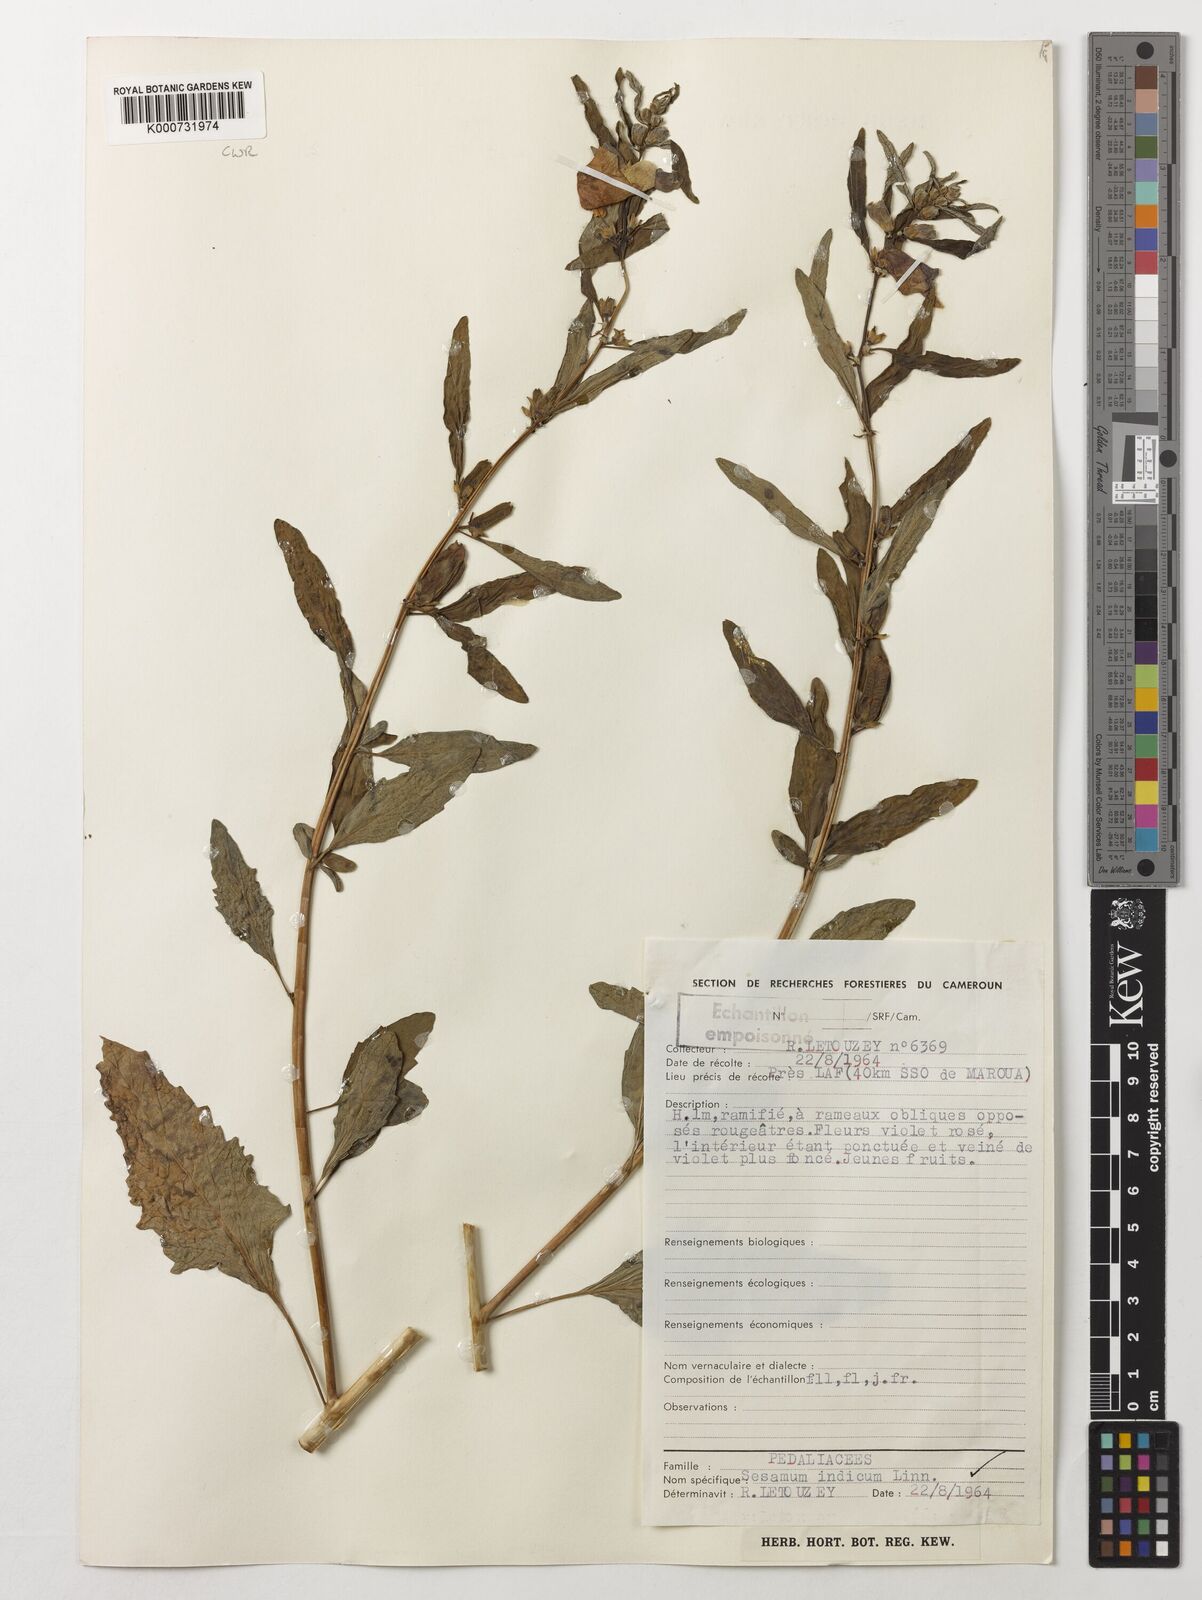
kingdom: Plantae
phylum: Tracheophyta
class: Magnoliopsida
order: Lamiales
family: Pedaliaceae
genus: Sesamum
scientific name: Sesamum indicum
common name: Sesame
